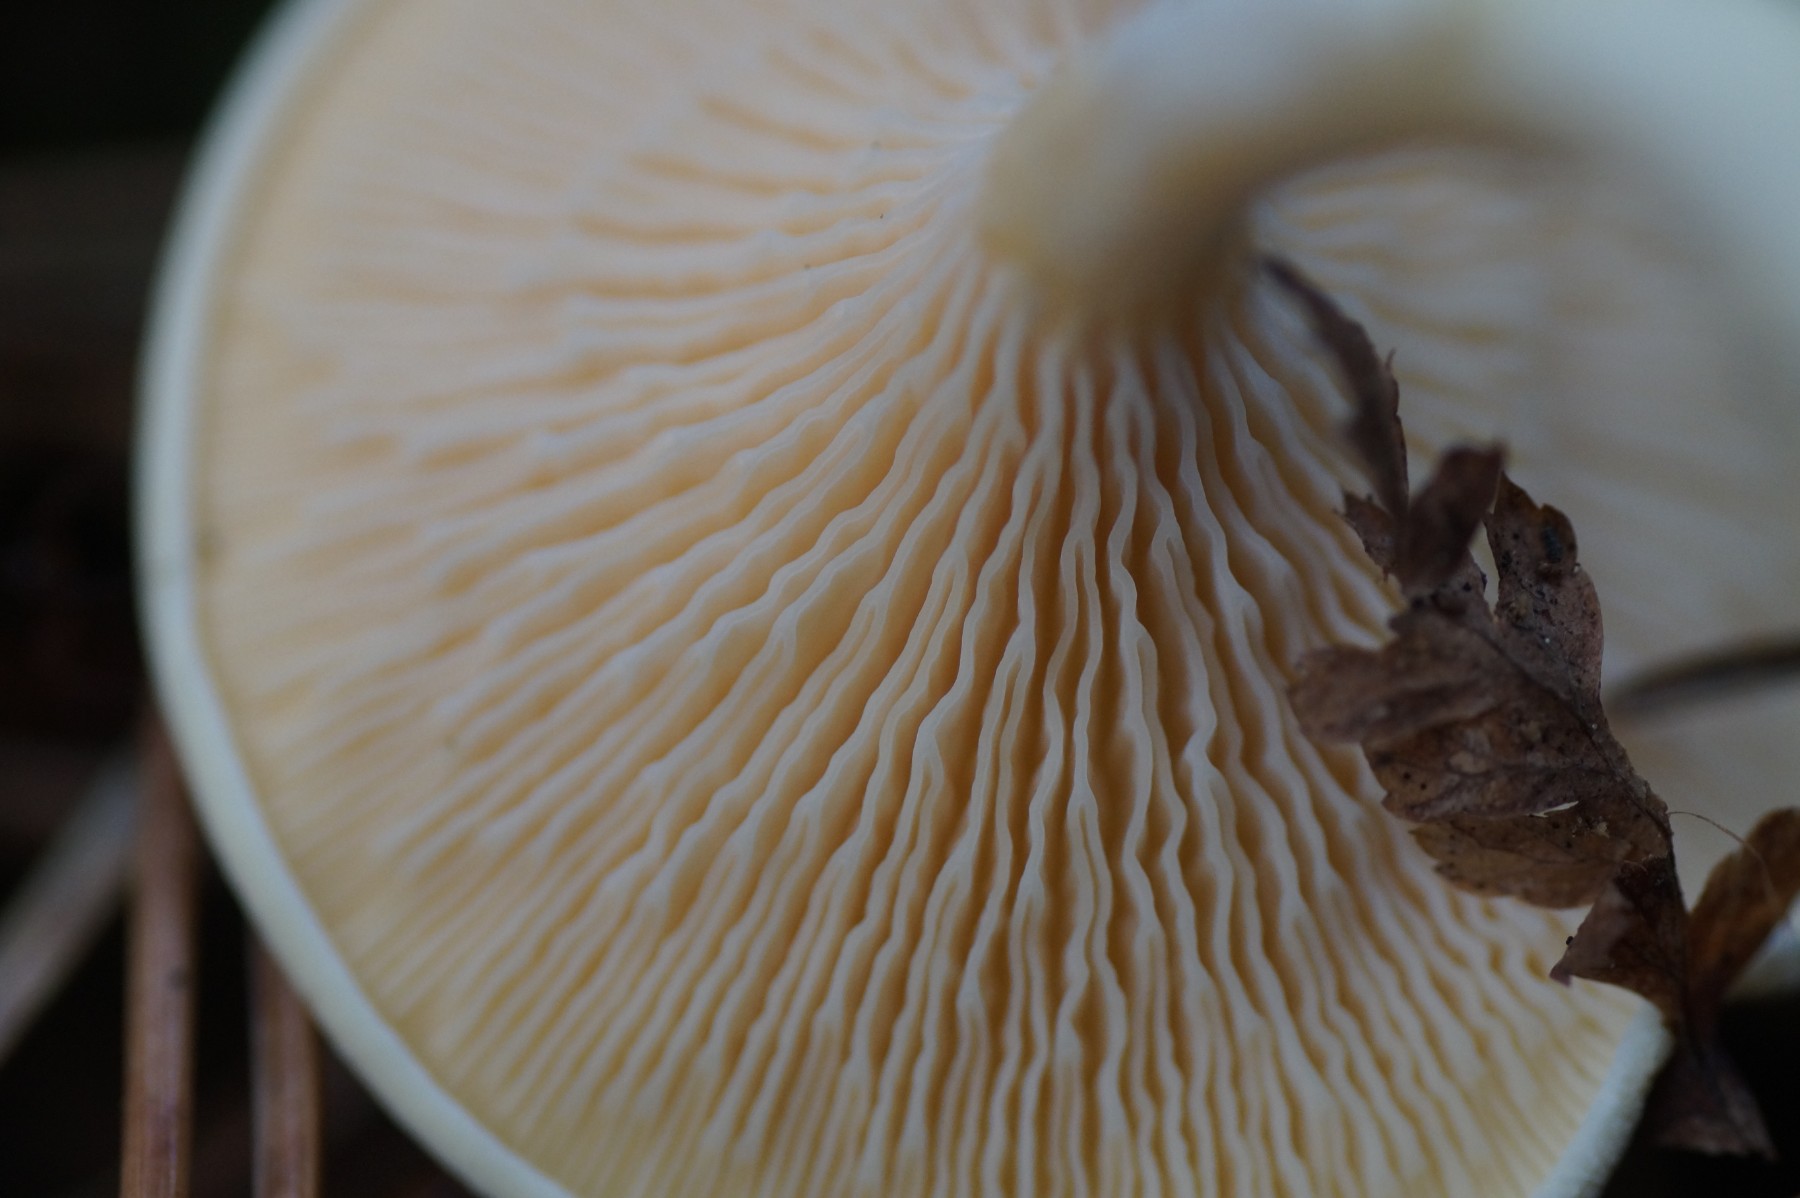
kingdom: Fungi
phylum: Basidiomycota
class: Agaricomycetes
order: Boletales
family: Hygrophoropsidaceae
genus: Hygrophoropsis
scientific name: Hygrophoropsis pallida
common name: bleg orangekantarel
